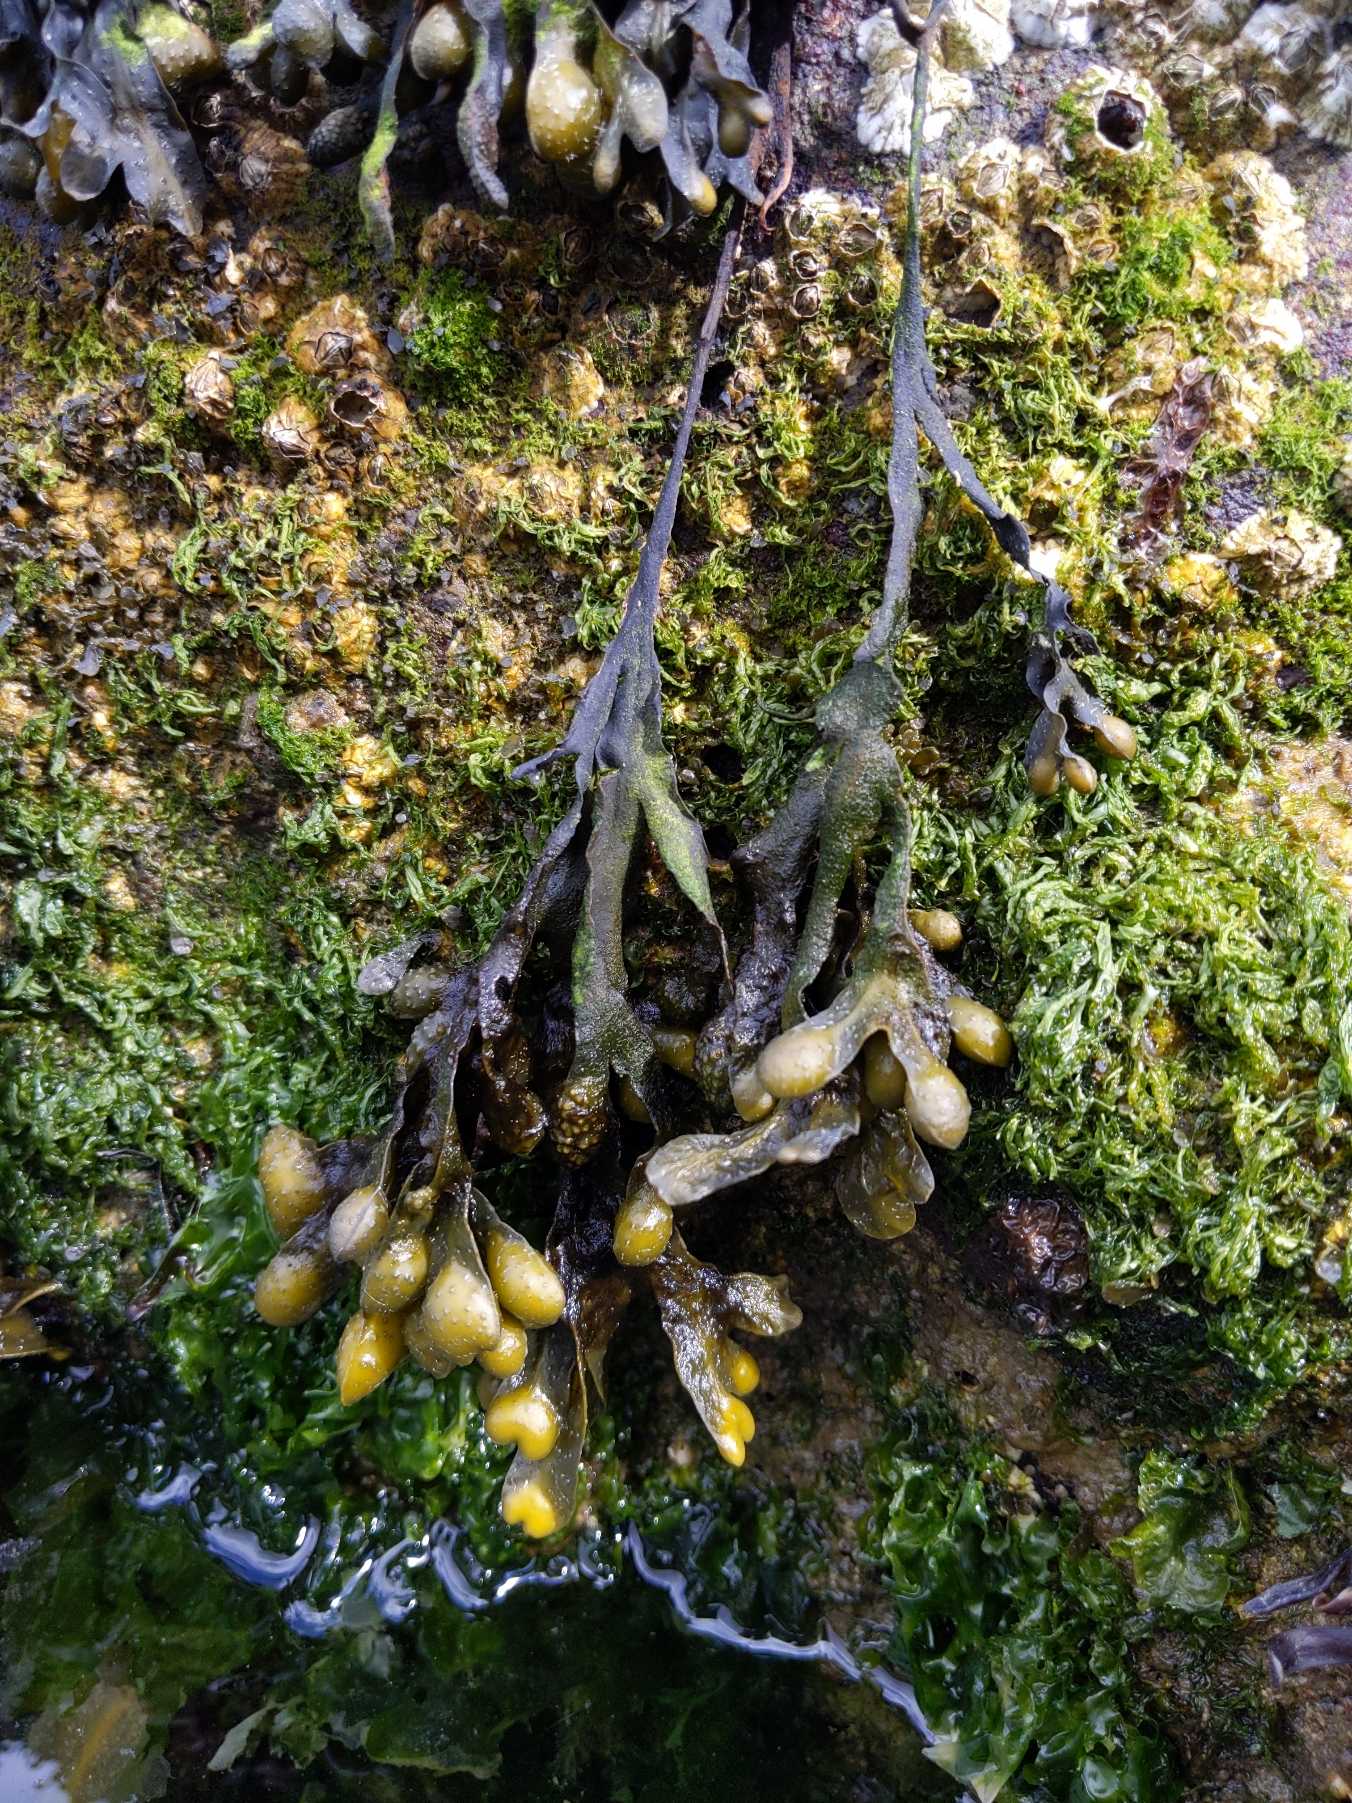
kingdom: Chromista
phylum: Ochrophyta
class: Phaeophyceae
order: Fucales
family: Fucaceae
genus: Fucus
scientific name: Fucus
